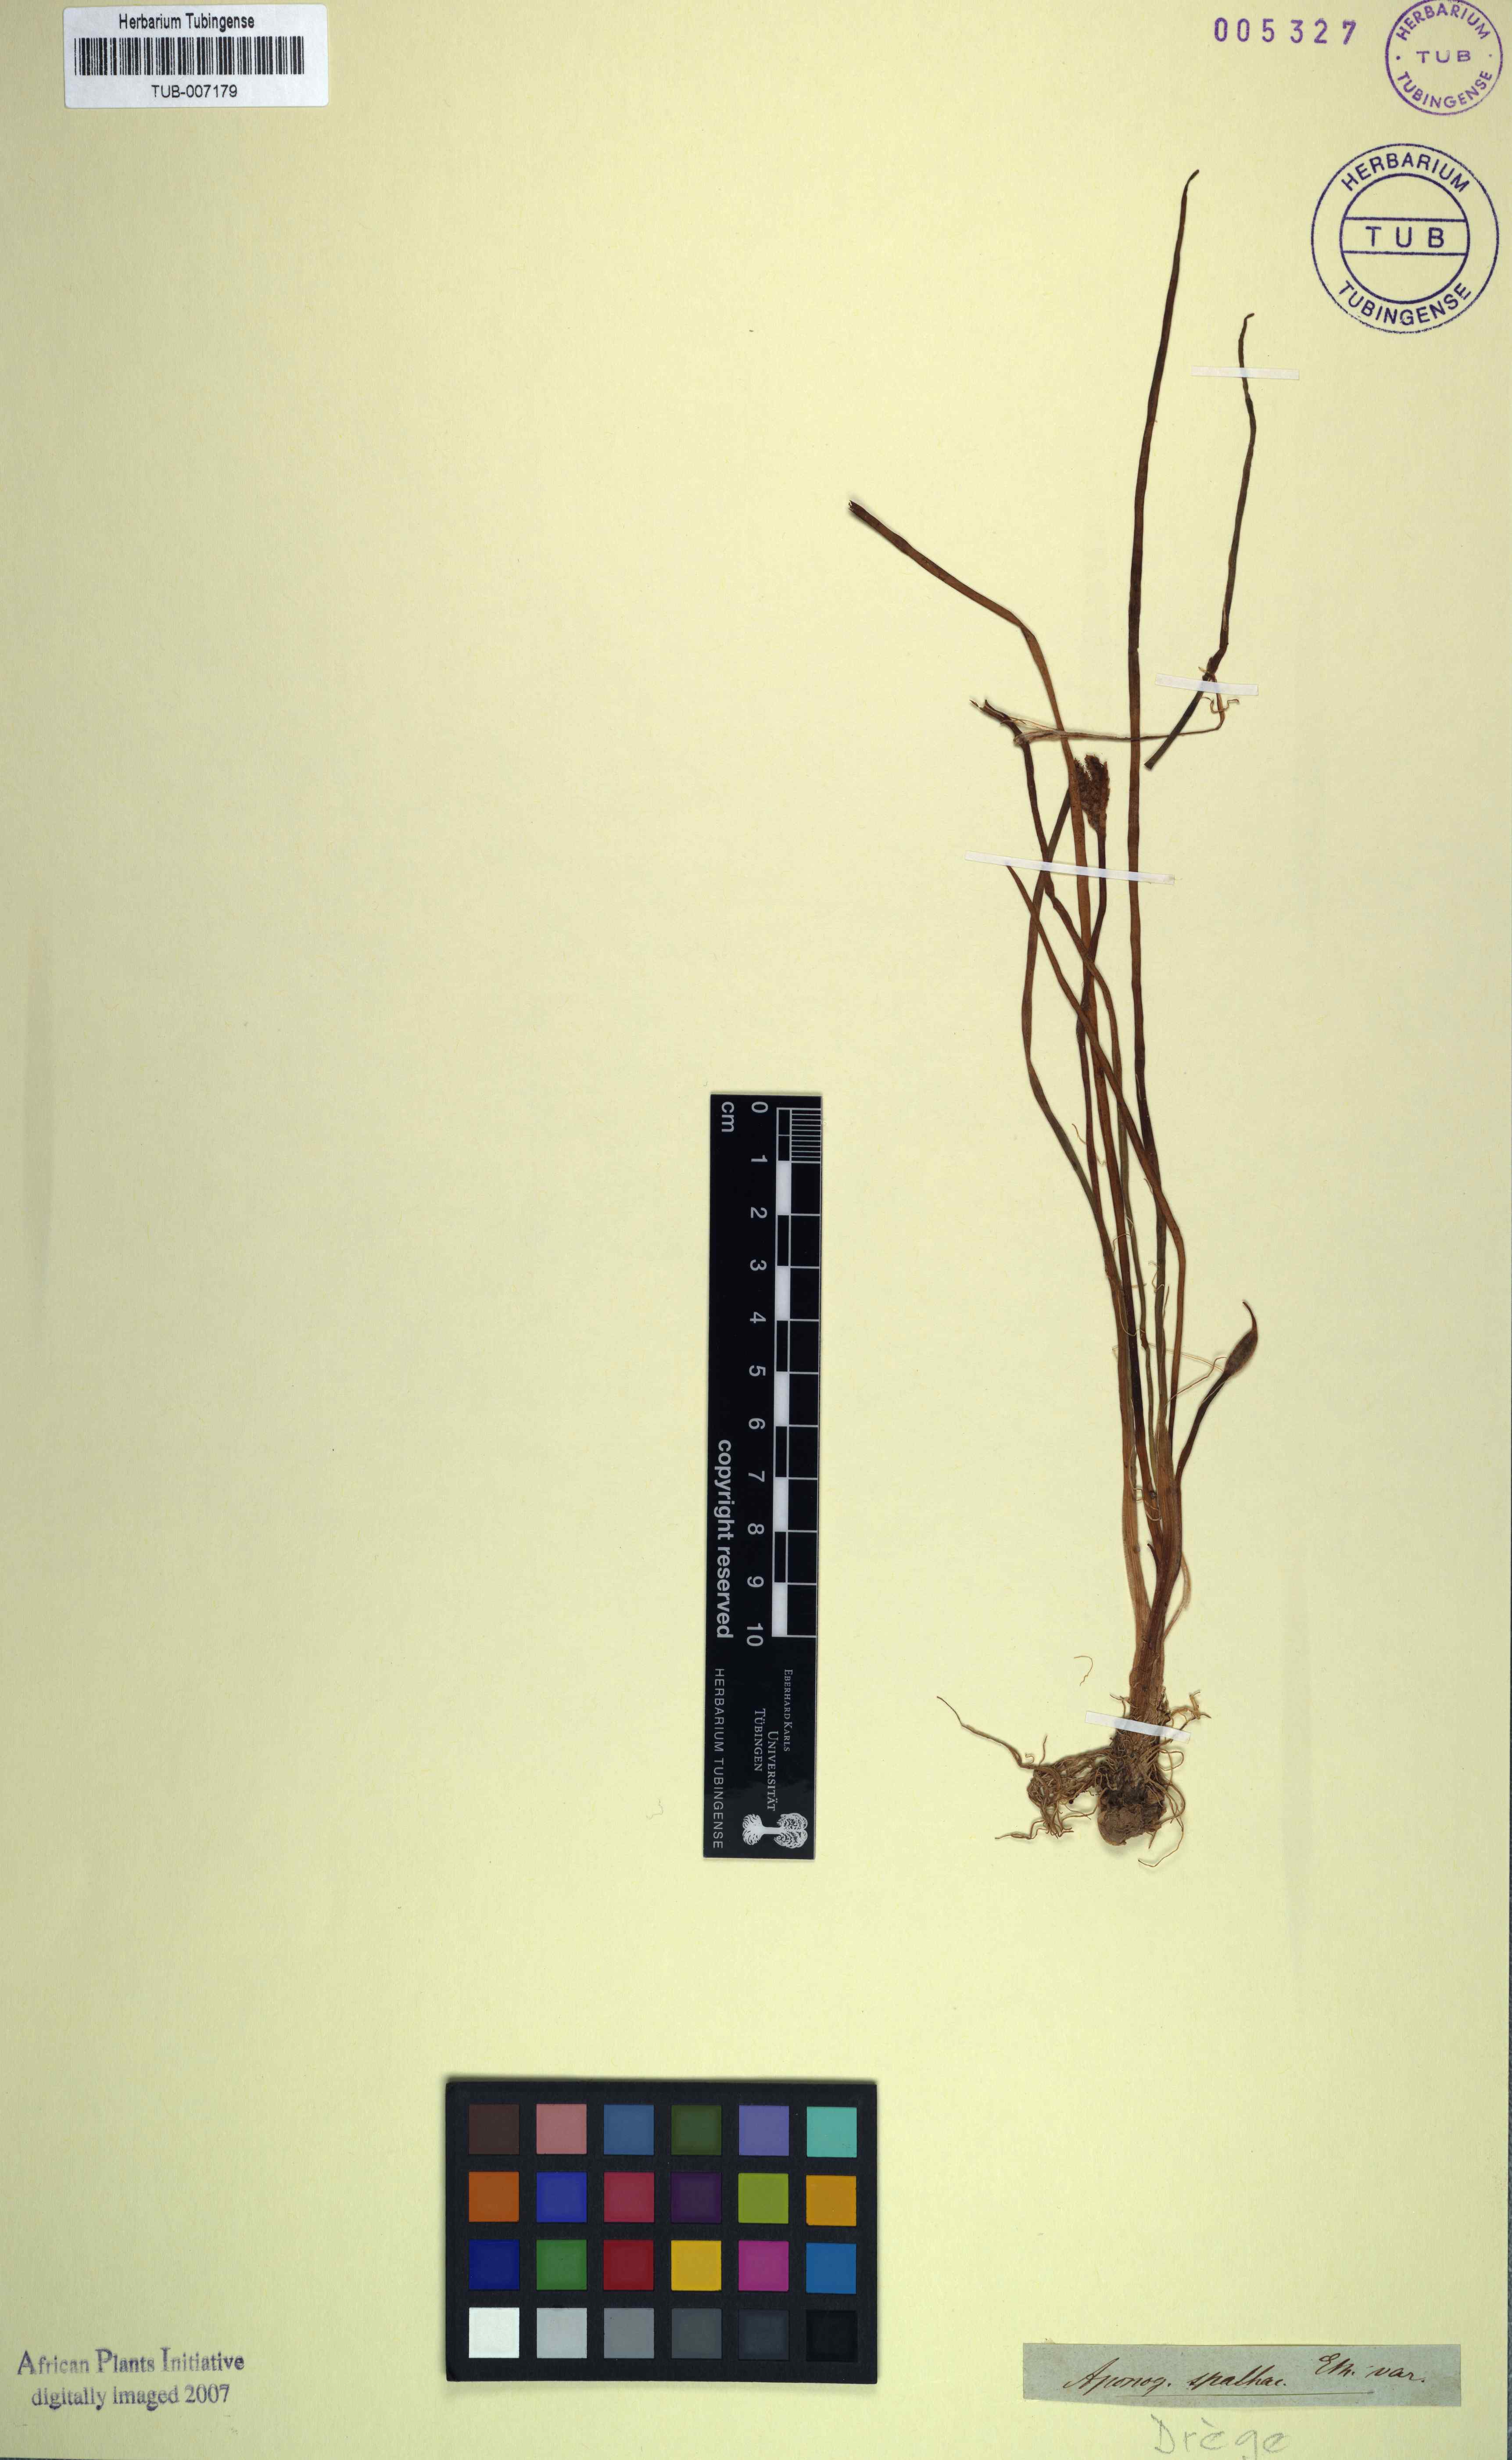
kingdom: Plantae
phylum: Tracheophyta
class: Liliopsida
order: Alismatales
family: Aponogetonaceae
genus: Aponogeton
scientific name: Aponogeton spathaceum
